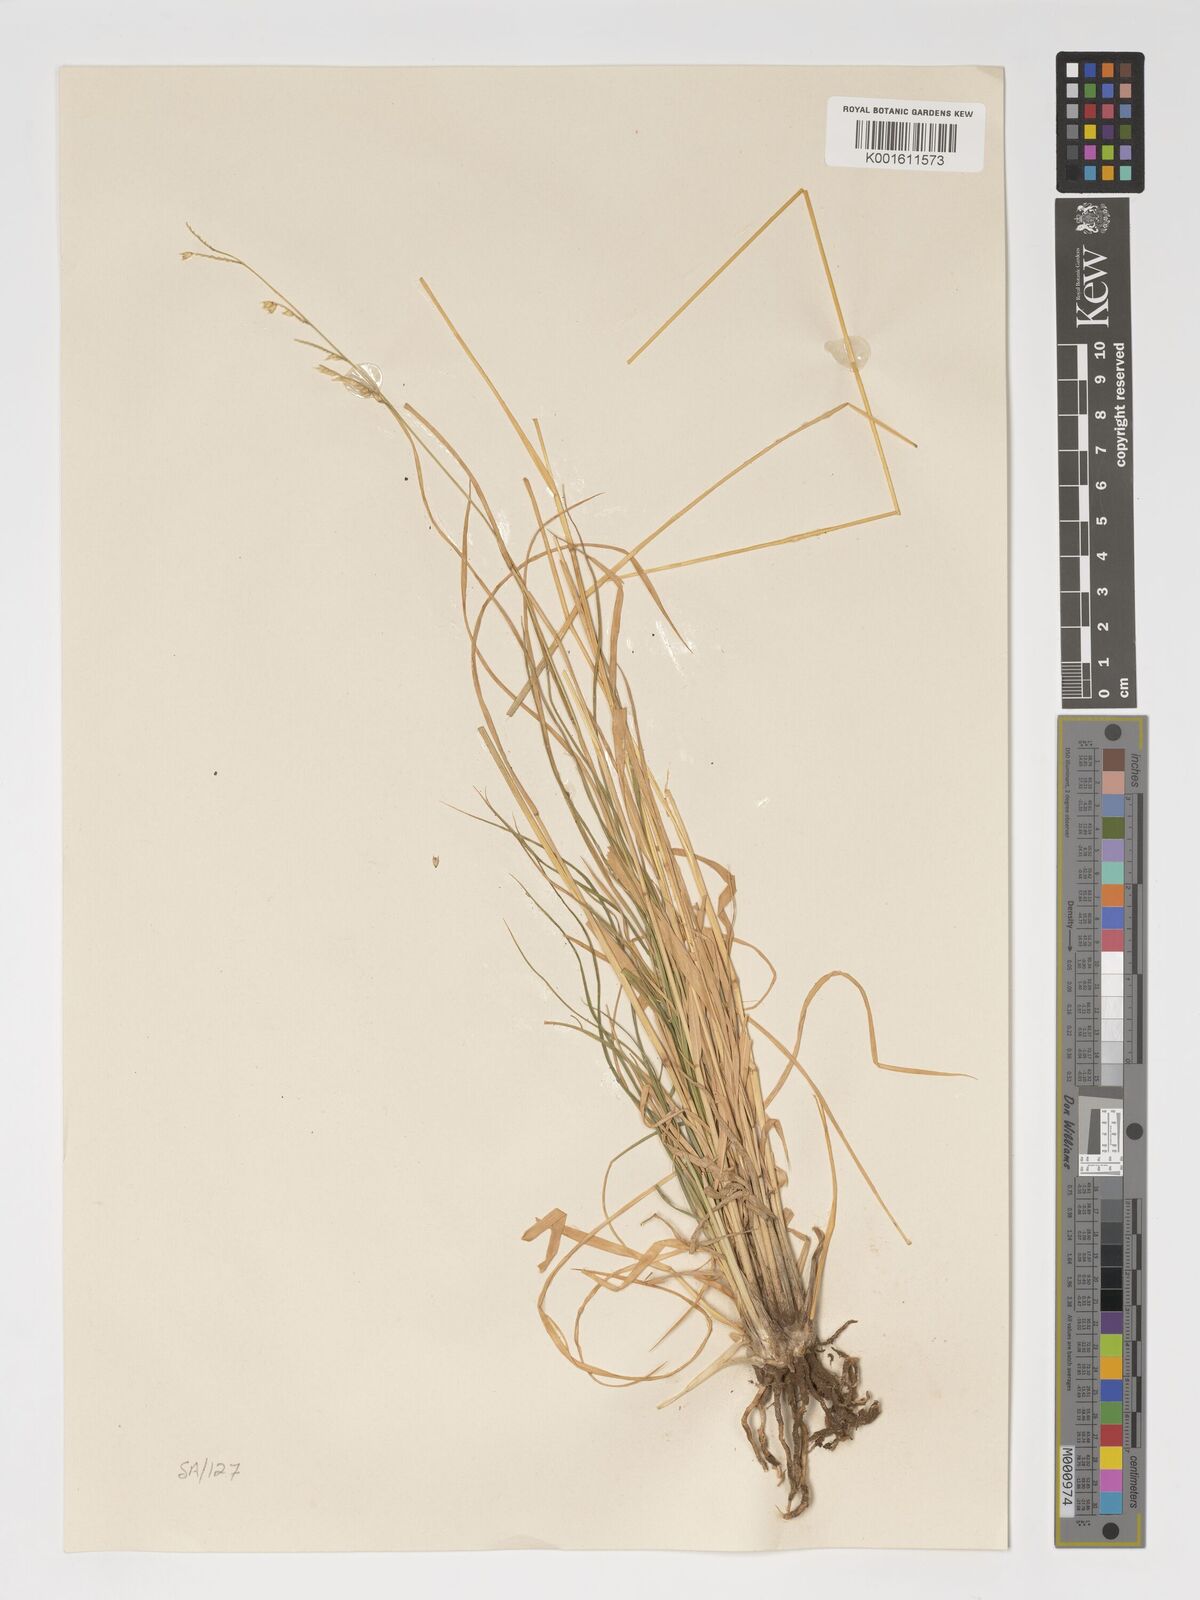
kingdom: Plantae
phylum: Tracheophyta
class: Liliopsida
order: Poales
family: Poaceae
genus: Urochloa
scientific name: Urochloa nigropedata
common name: Spotted signal grass
